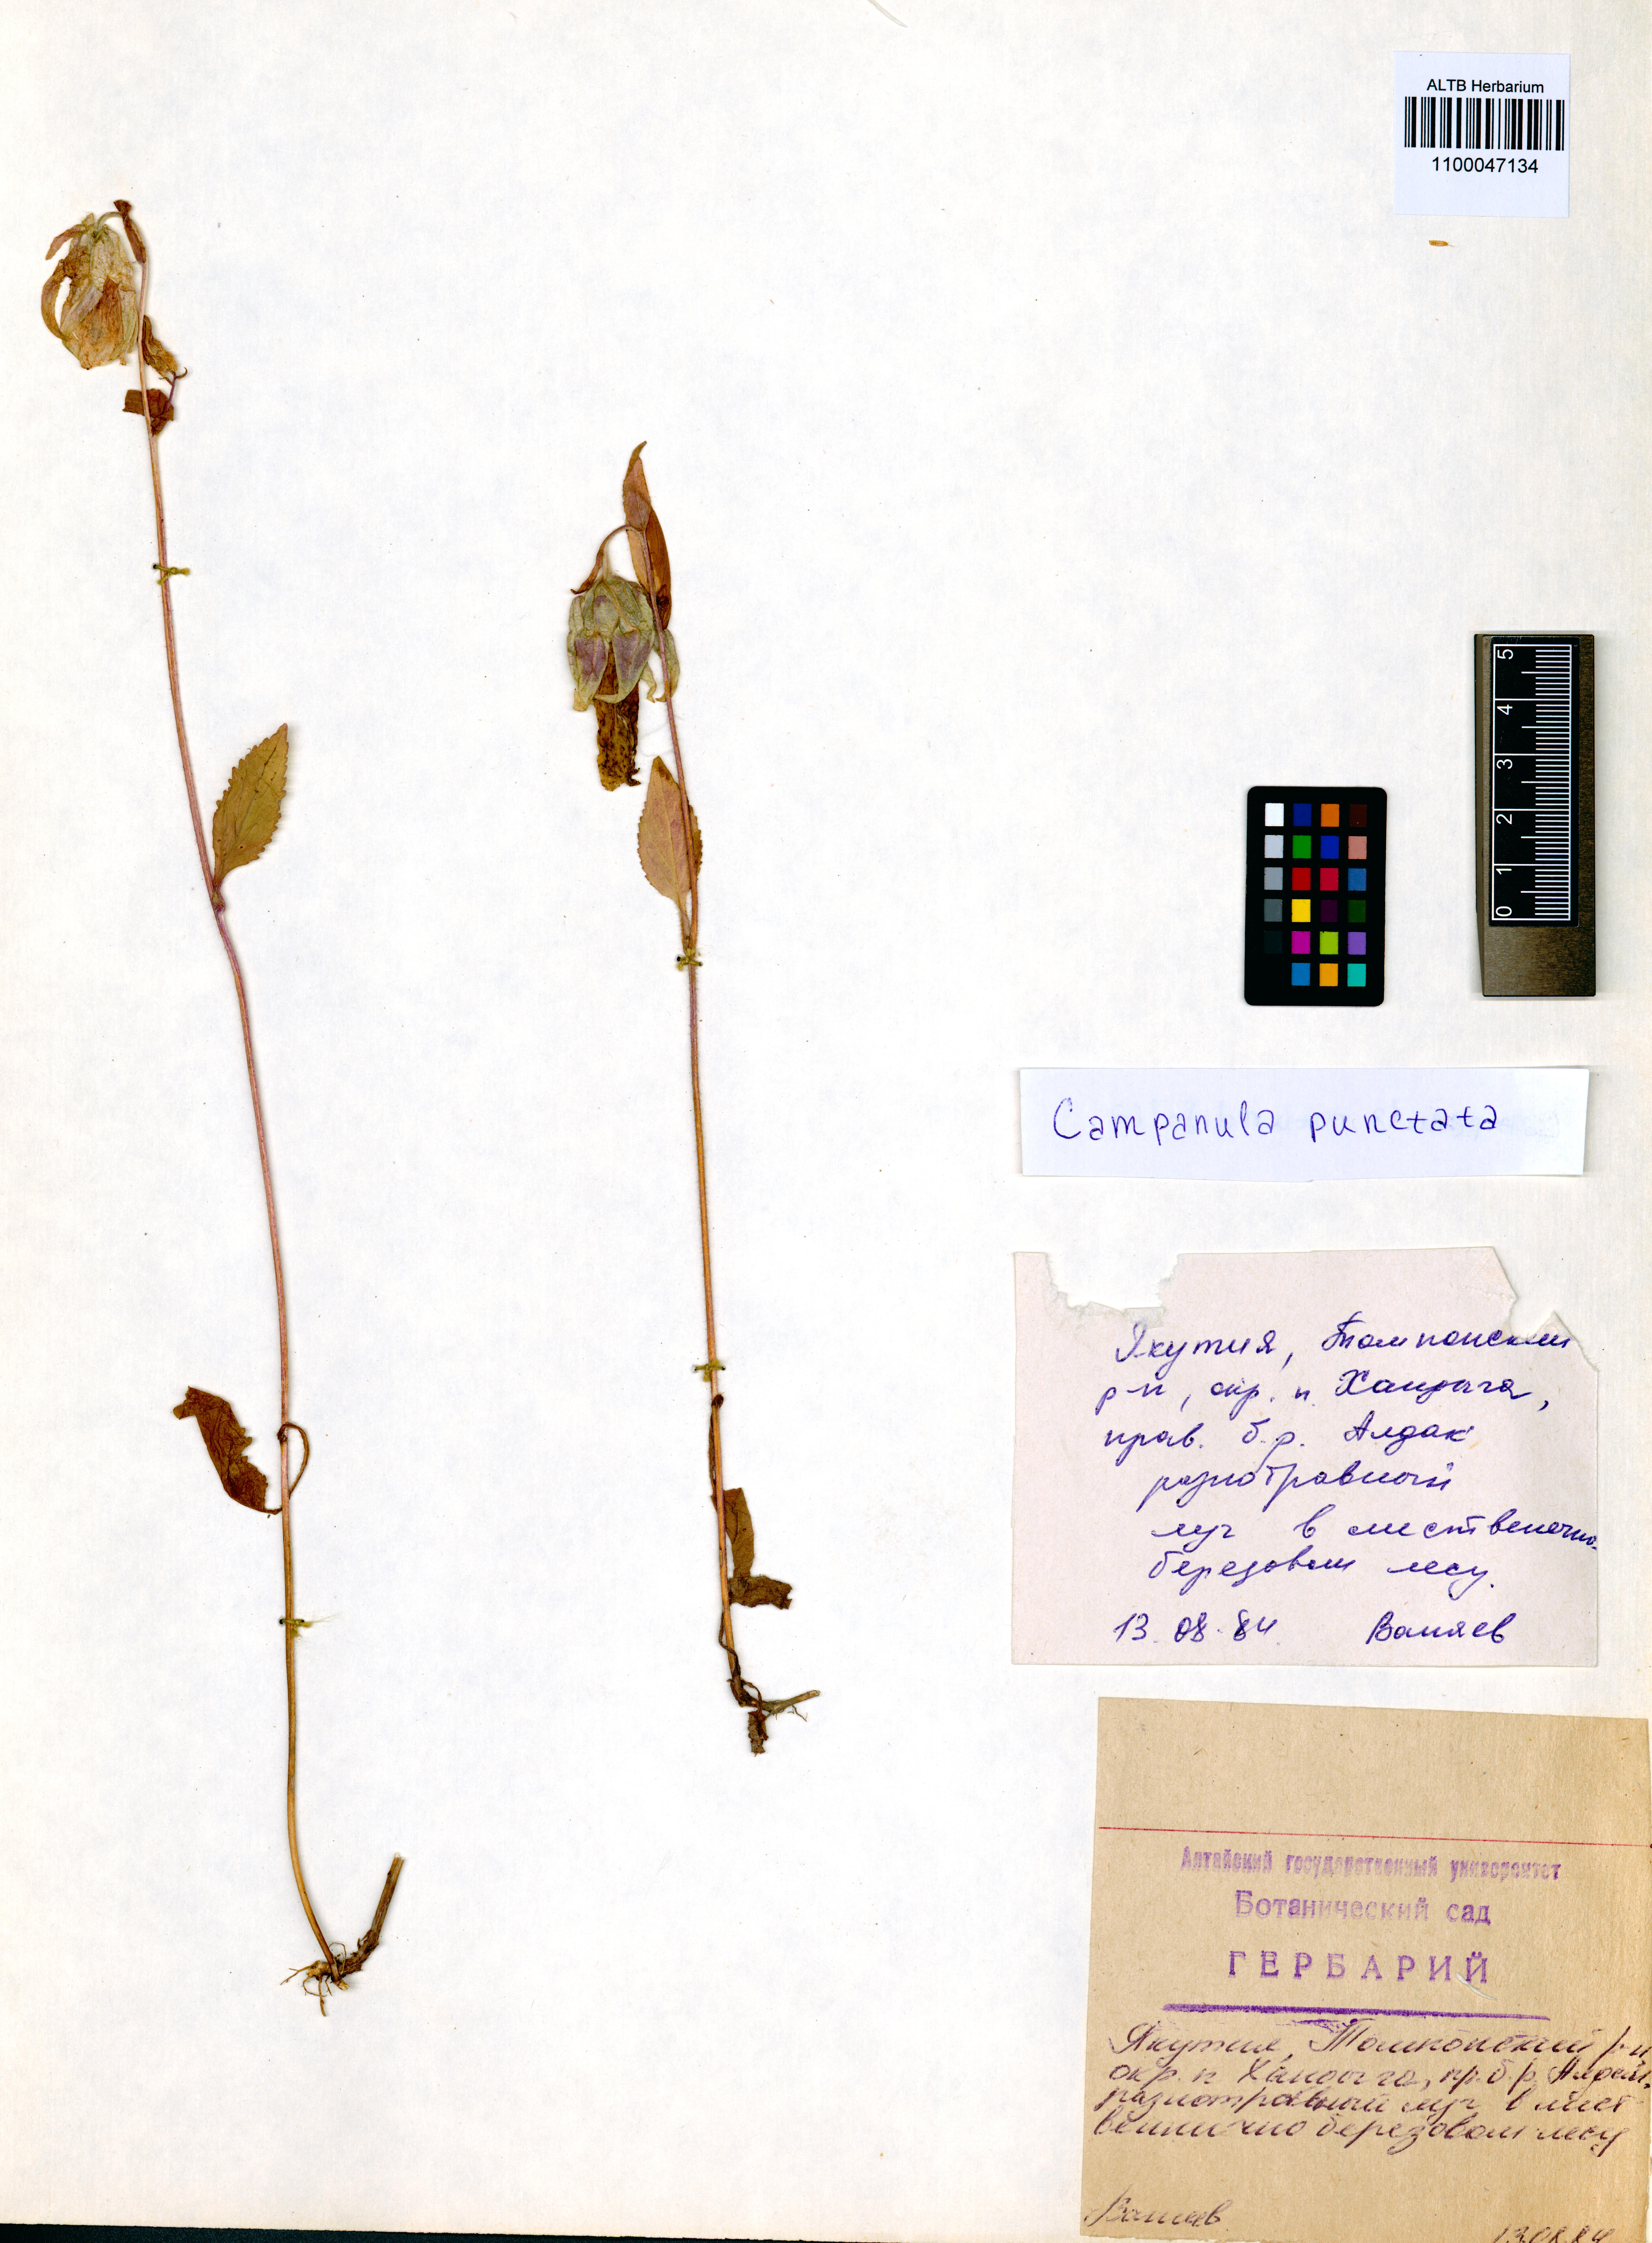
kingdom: Plantae
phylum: Tracheophyta
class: Magnoliopsida
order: Asterales
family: Campanulaceae
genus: Campanula
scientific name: Campanula punctata
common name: Spotted bellflower
